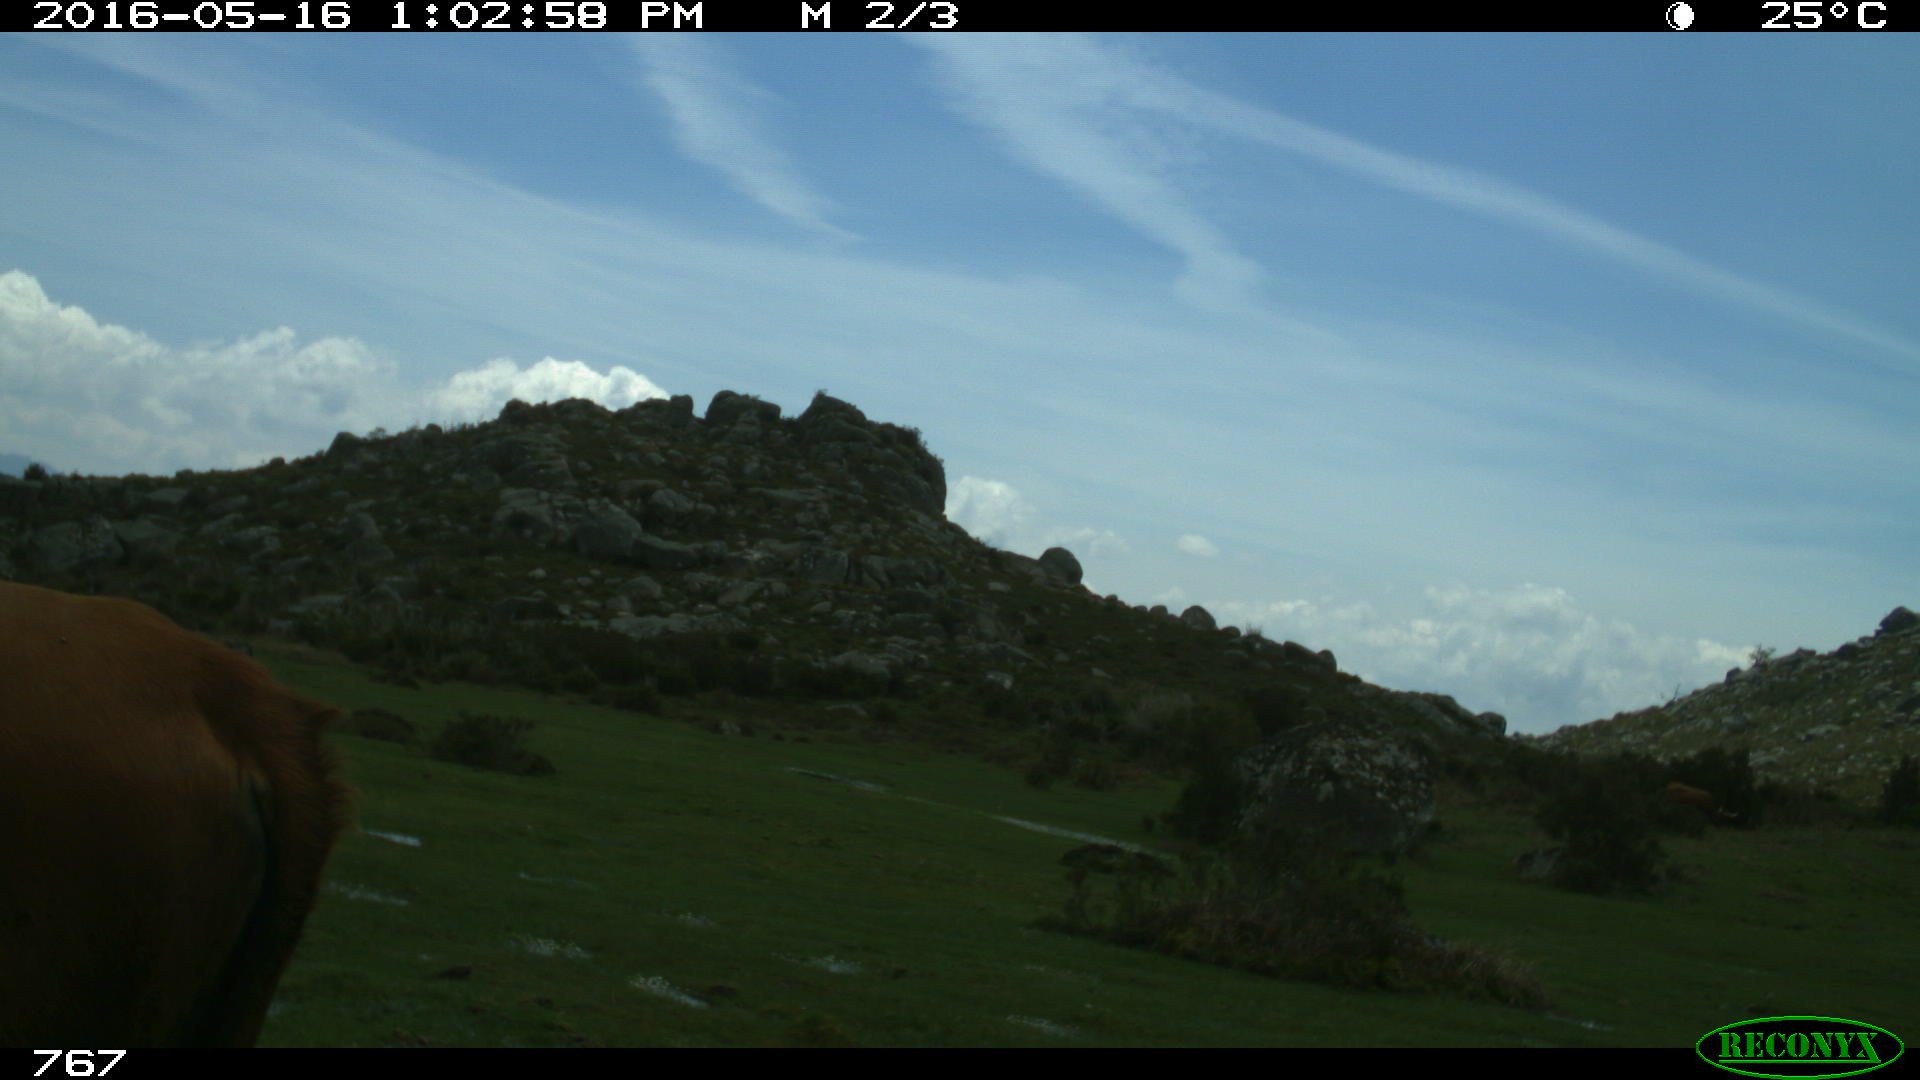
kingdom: Animalia
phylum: Chordata
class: Mammalia
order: Artiodactyla
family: Bovidae
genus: Bos
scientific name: Bos taurus
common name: Domesticated cattle
